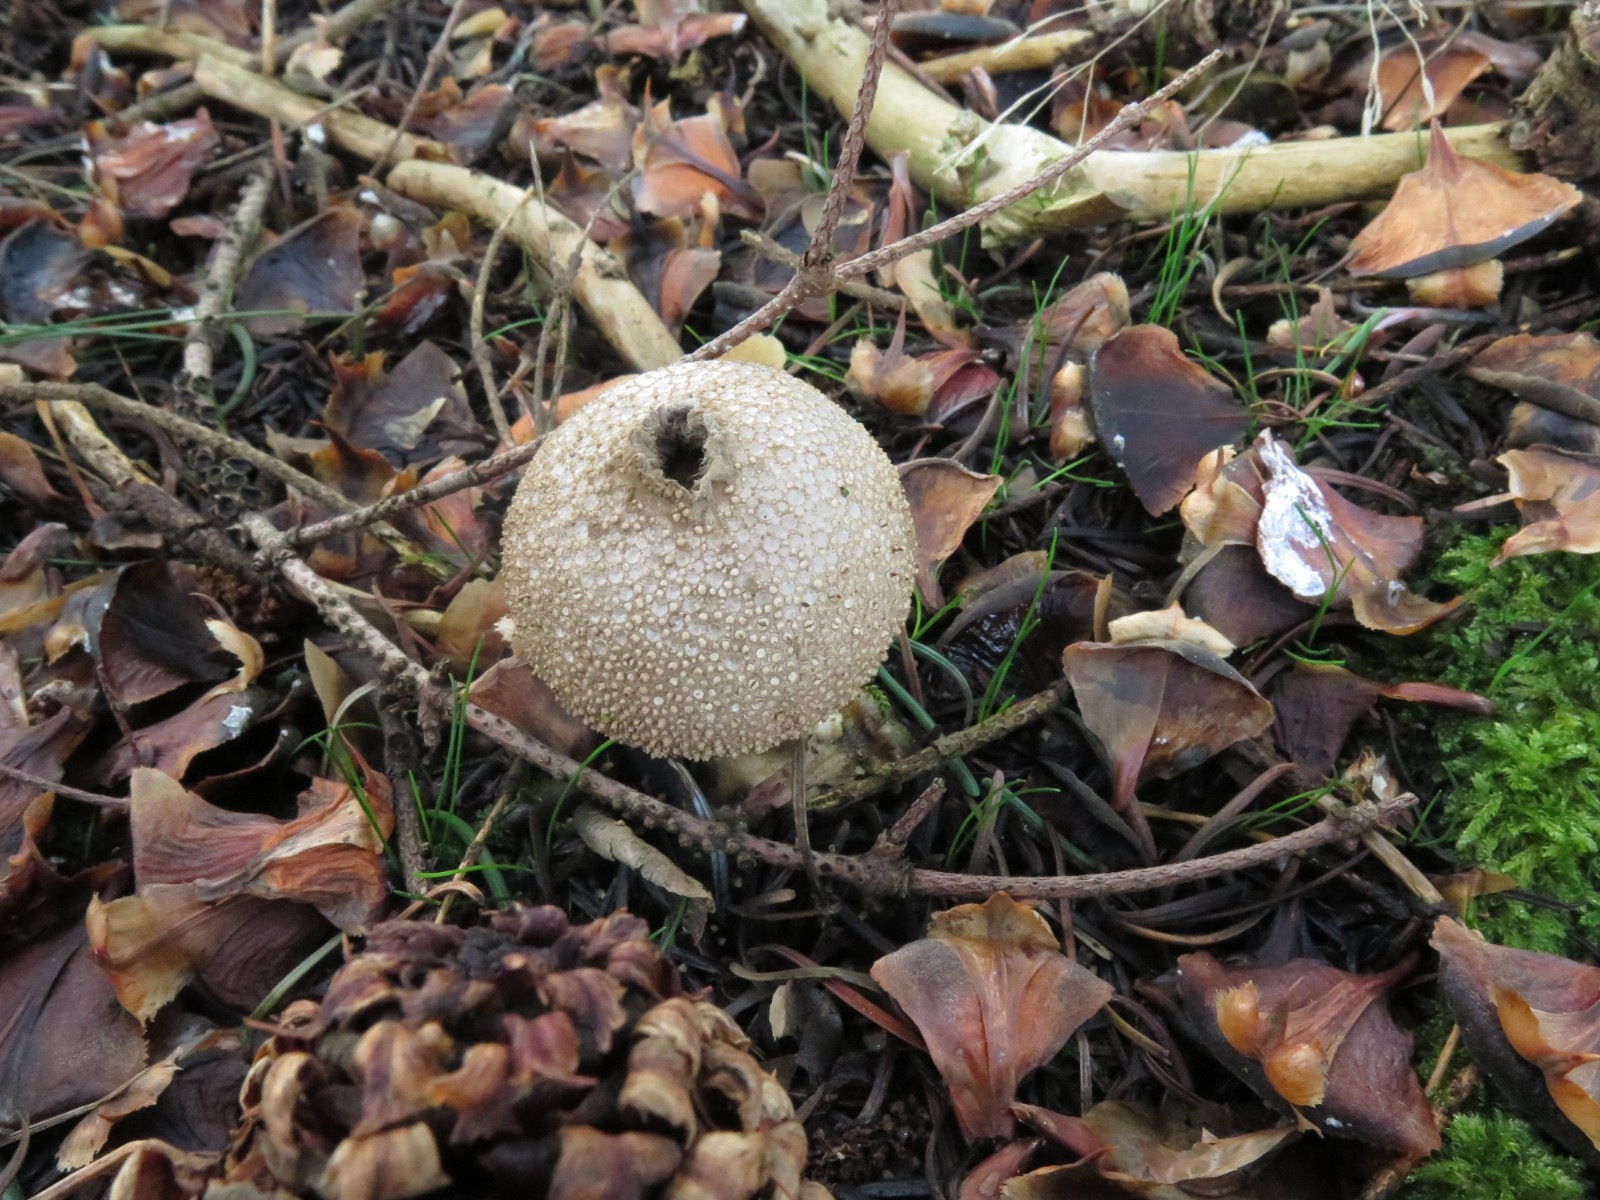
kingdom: Fungi
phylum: Basidiomycota
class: Agaricomycetes
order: Agaricales
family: Lycoperdaceae
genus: Lycoperdon
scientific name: Lycoperdon perlatum
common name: krystal-støvbold
